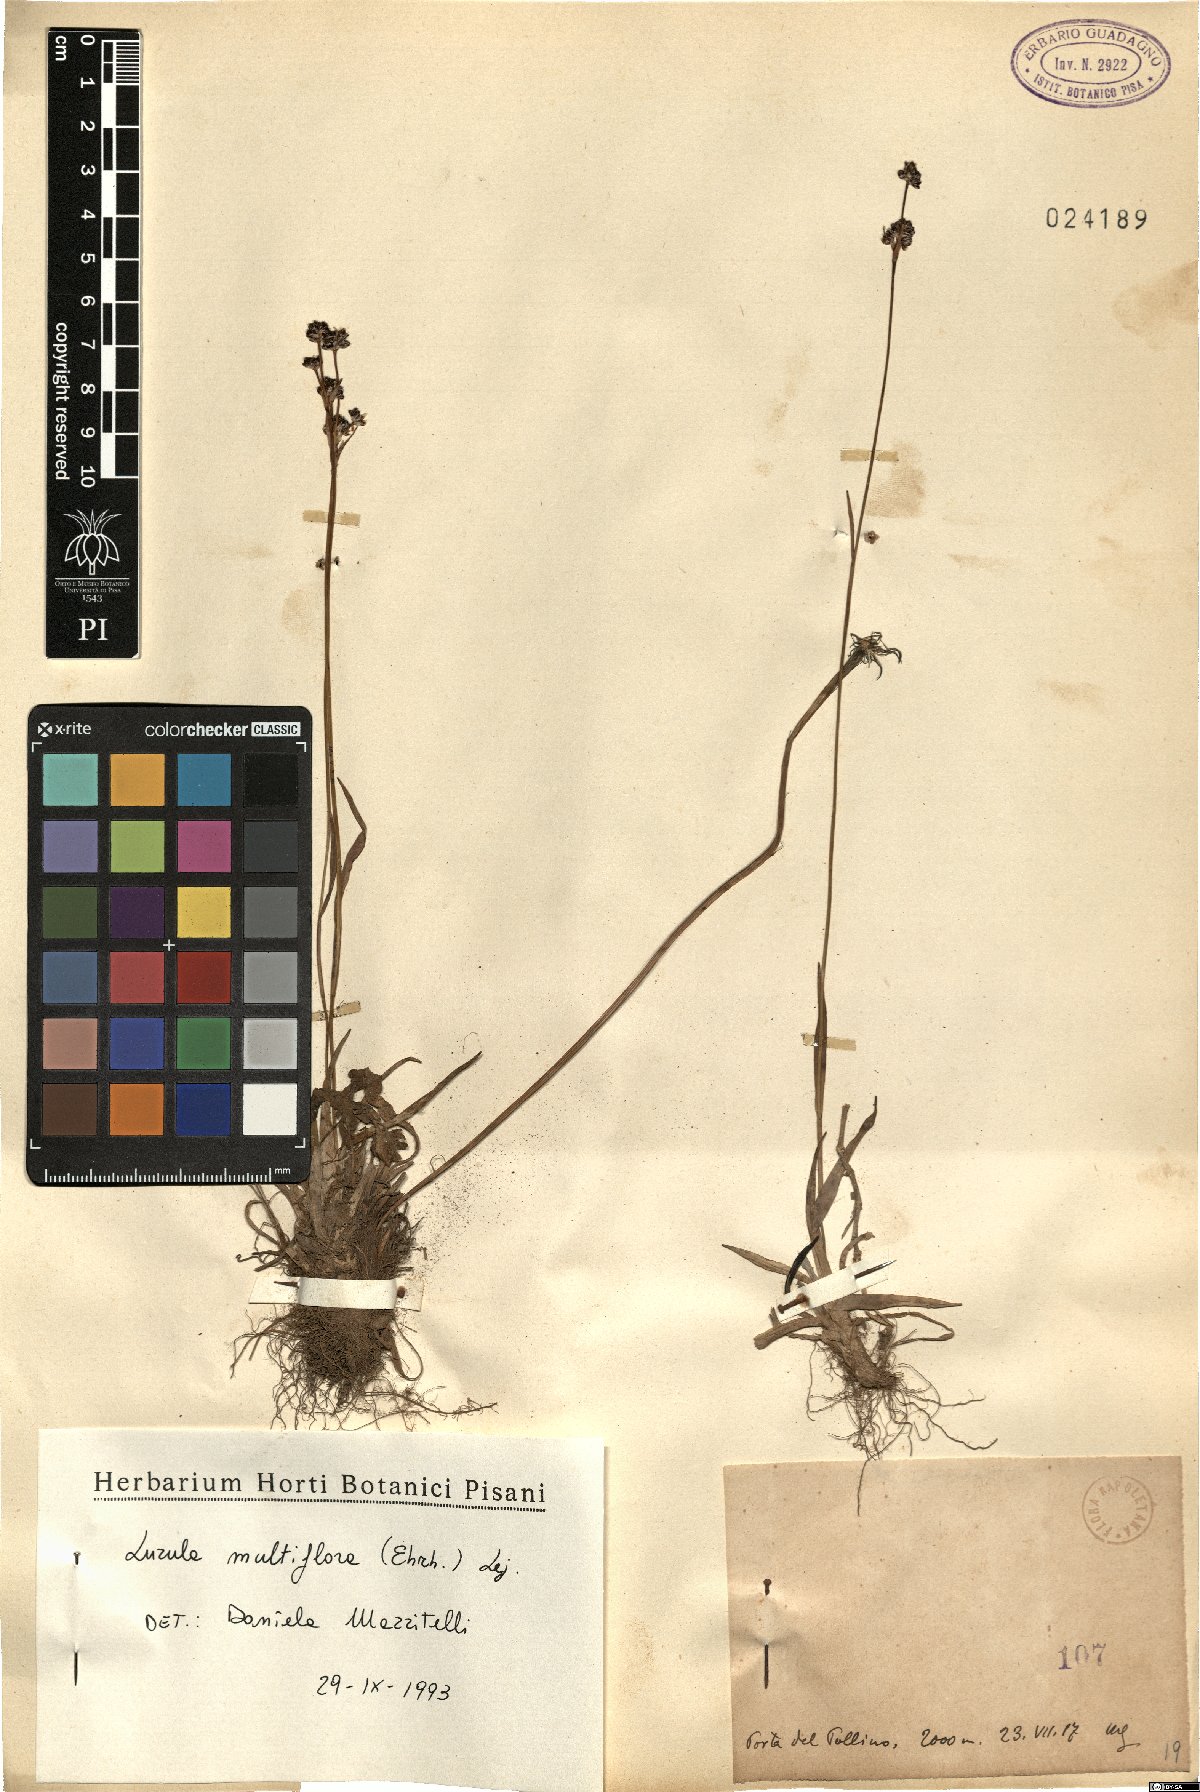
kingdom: Plantae
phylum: Tracheophyta
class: Liliopsida
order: Poales
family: Juncaceae
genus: Luzula
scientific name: Luzula multiflora
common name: Heath wood-rush
